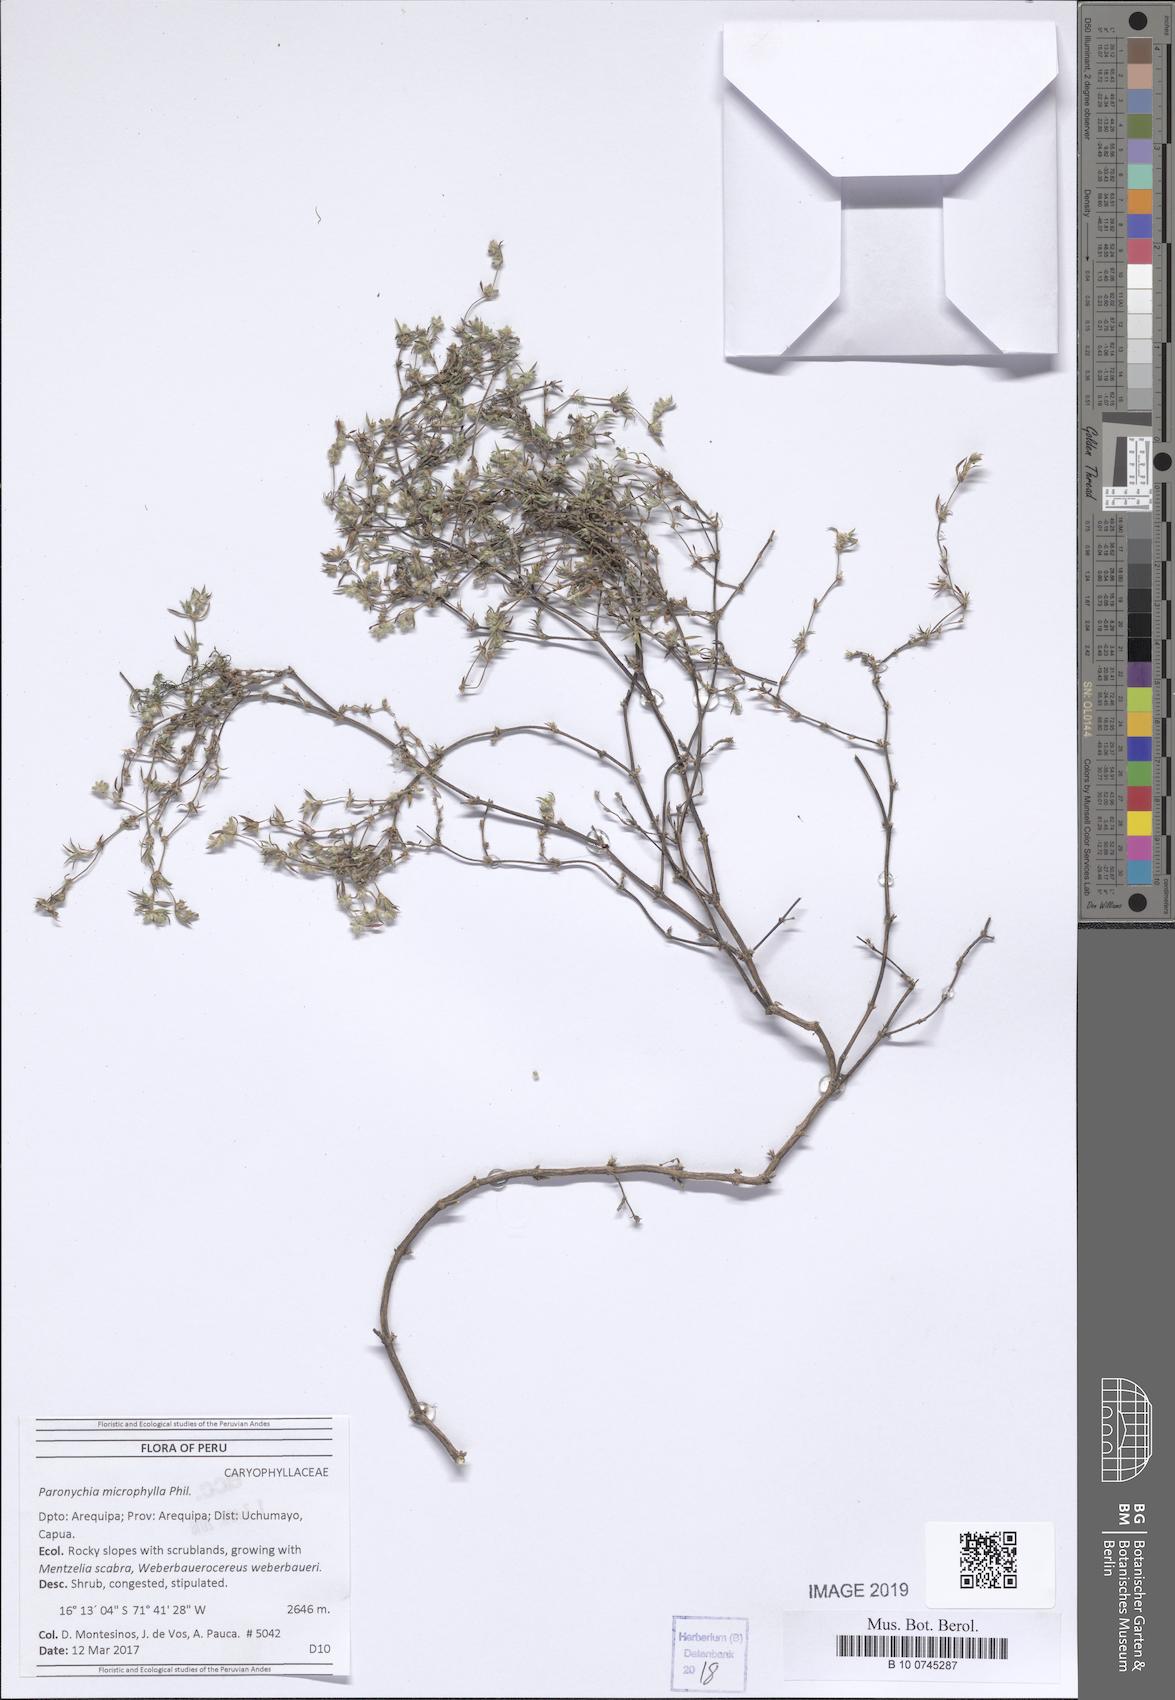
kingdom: Plantae
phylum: Tracheophyta
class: Magnoliopsida
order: Caryophyllales
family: Caryophyllaceae
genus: Paronychia
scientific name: Paronychia
